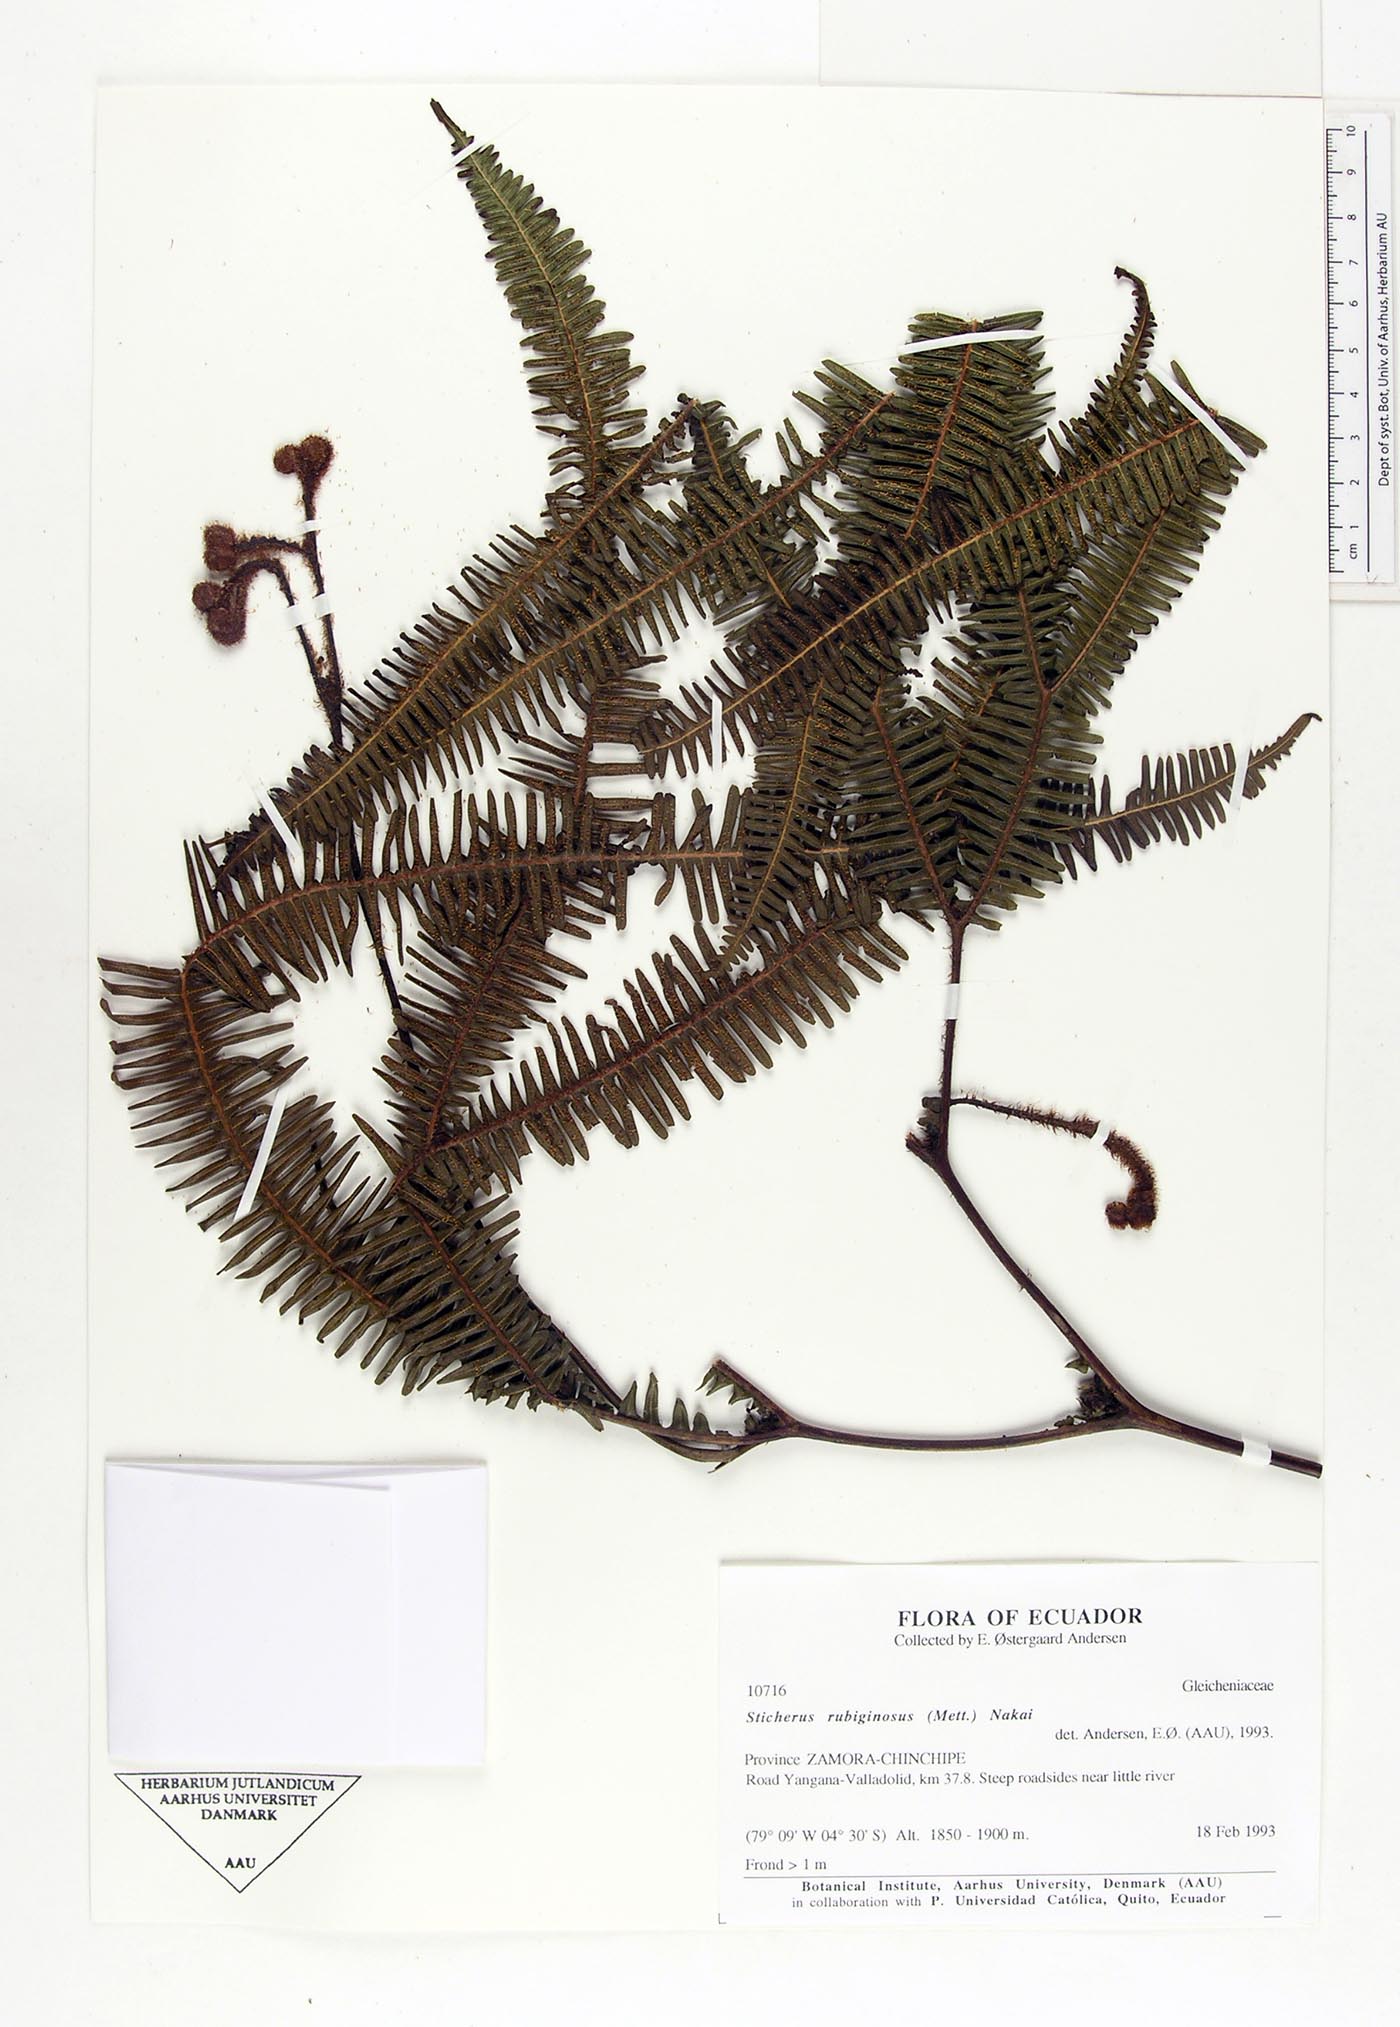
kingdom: Plantae
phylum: Tracheophyta
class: Polypodiopsida
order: Gleicheniales
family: Gleicheniaceae
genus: Sticherus
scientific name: Sticherus rubiginosus
